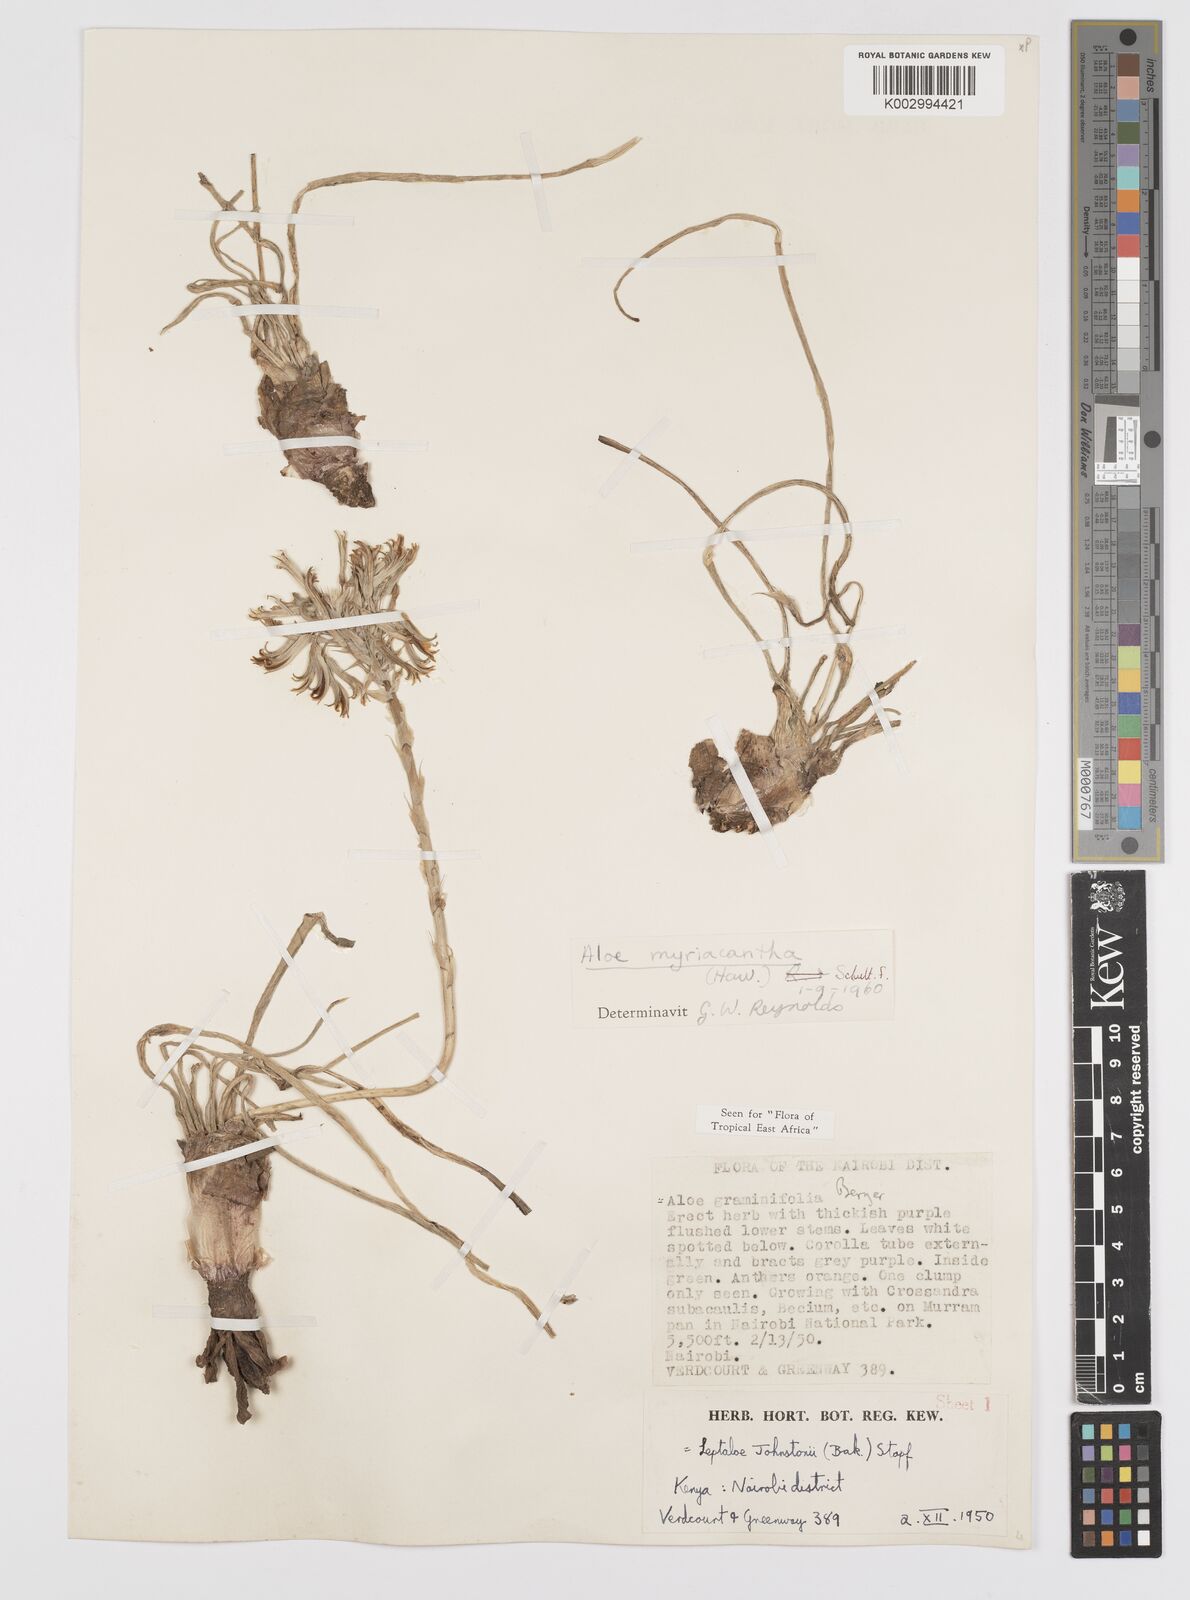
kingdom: Plantae
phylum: Tracheophyta
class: Liliopsida
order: Asparagales
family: Asphodelaceae
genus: Aloe
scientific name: Aloe myriacantha
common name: Grass aloe
